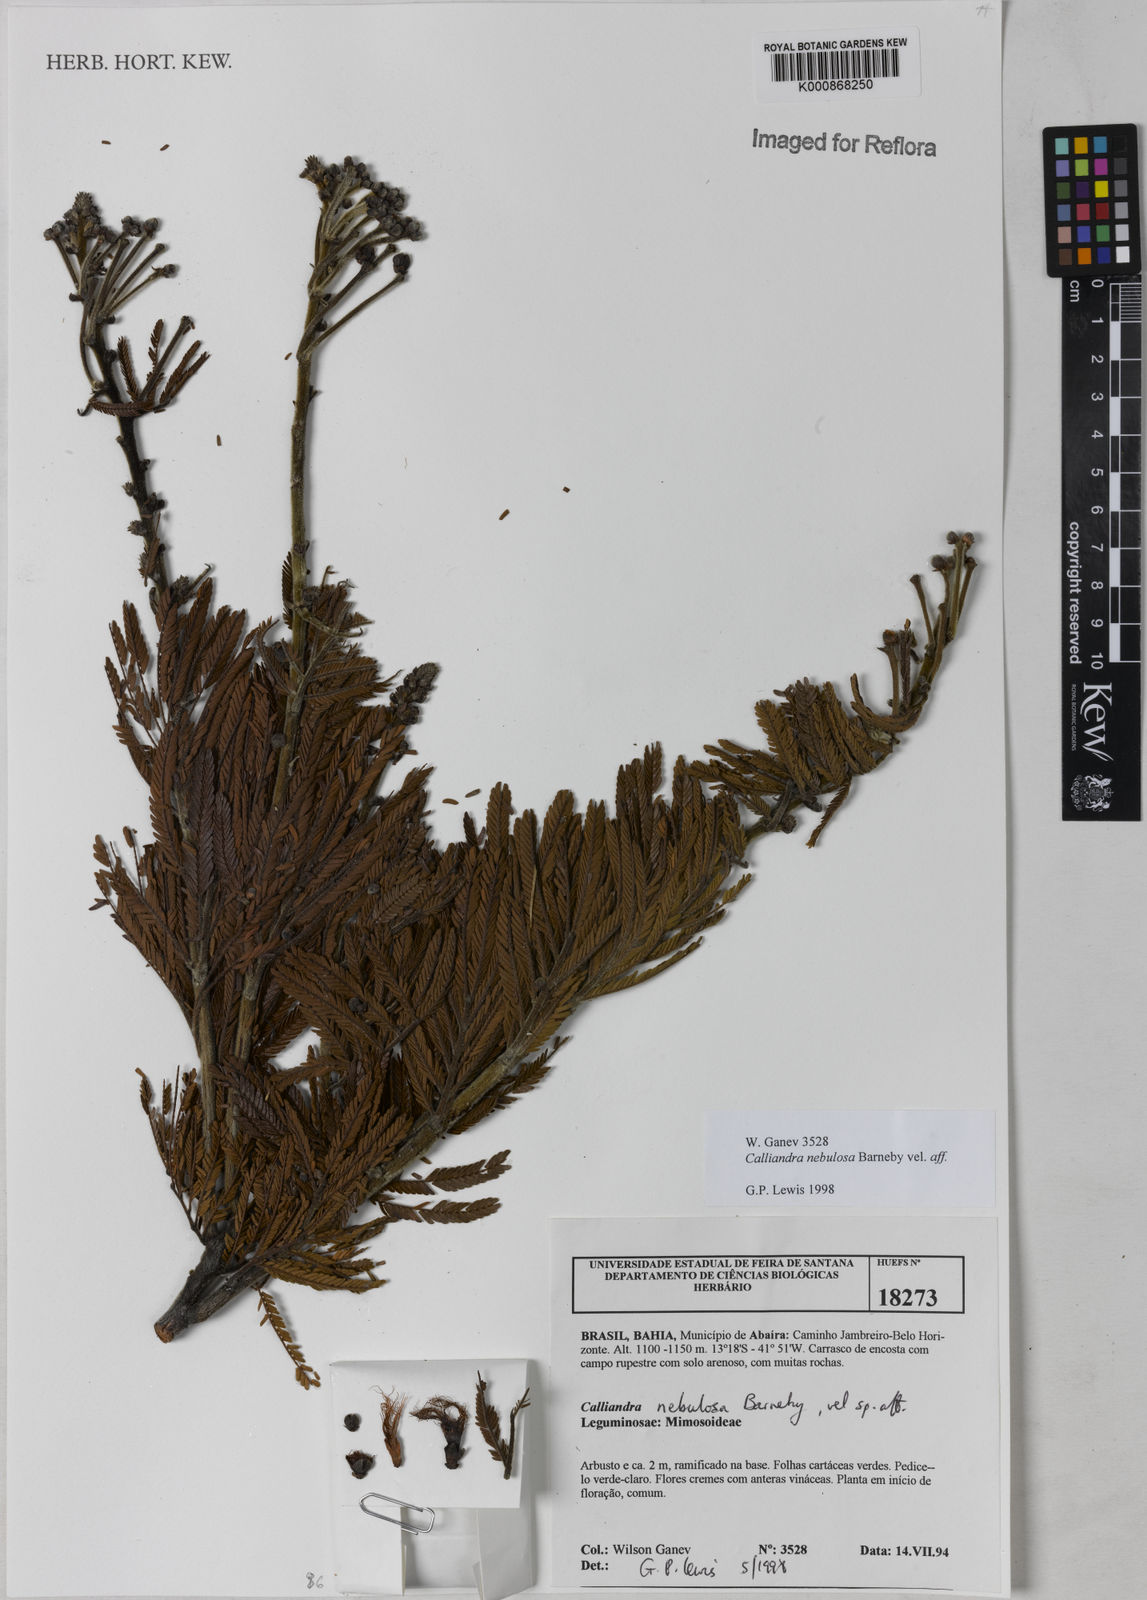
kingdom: Plantae
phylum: Tracheophyta
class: Magnoliopsida
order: Fabales
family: Fabaceae
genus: Calliandra
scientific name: Calliandra nebulosa
